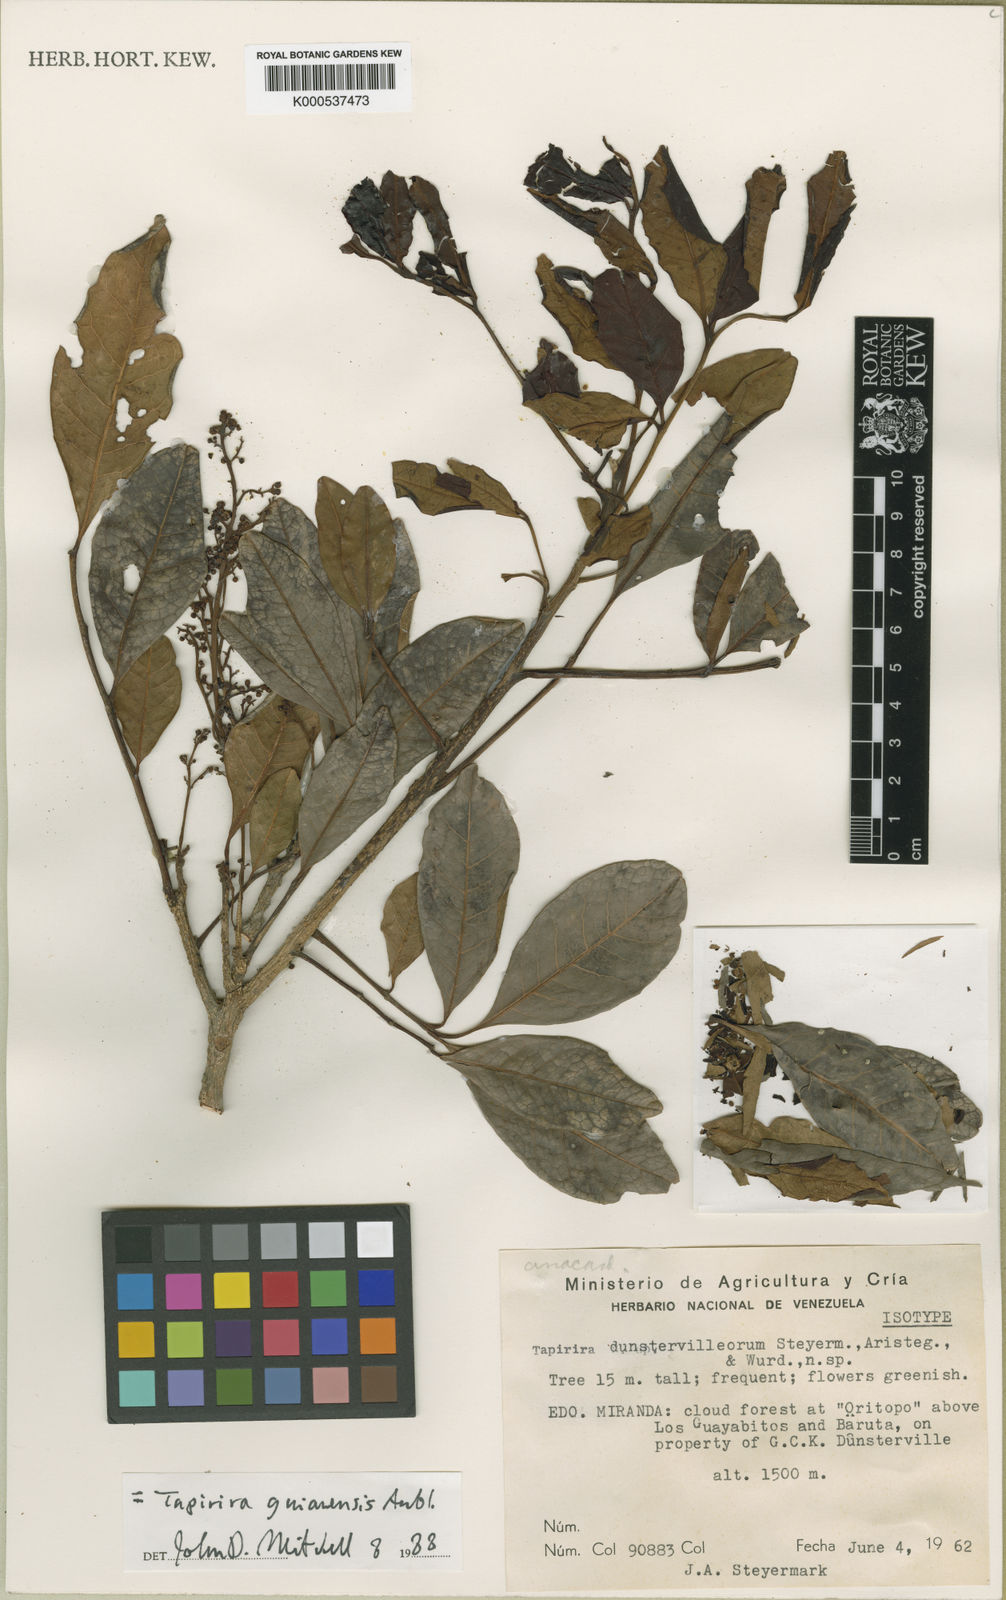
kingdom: Plantae
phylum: Tracheophyta
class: Magnoliopsida
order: Sapindales
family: Anacardiaceae
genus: Tapirira
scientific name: Tapirira guianensis
